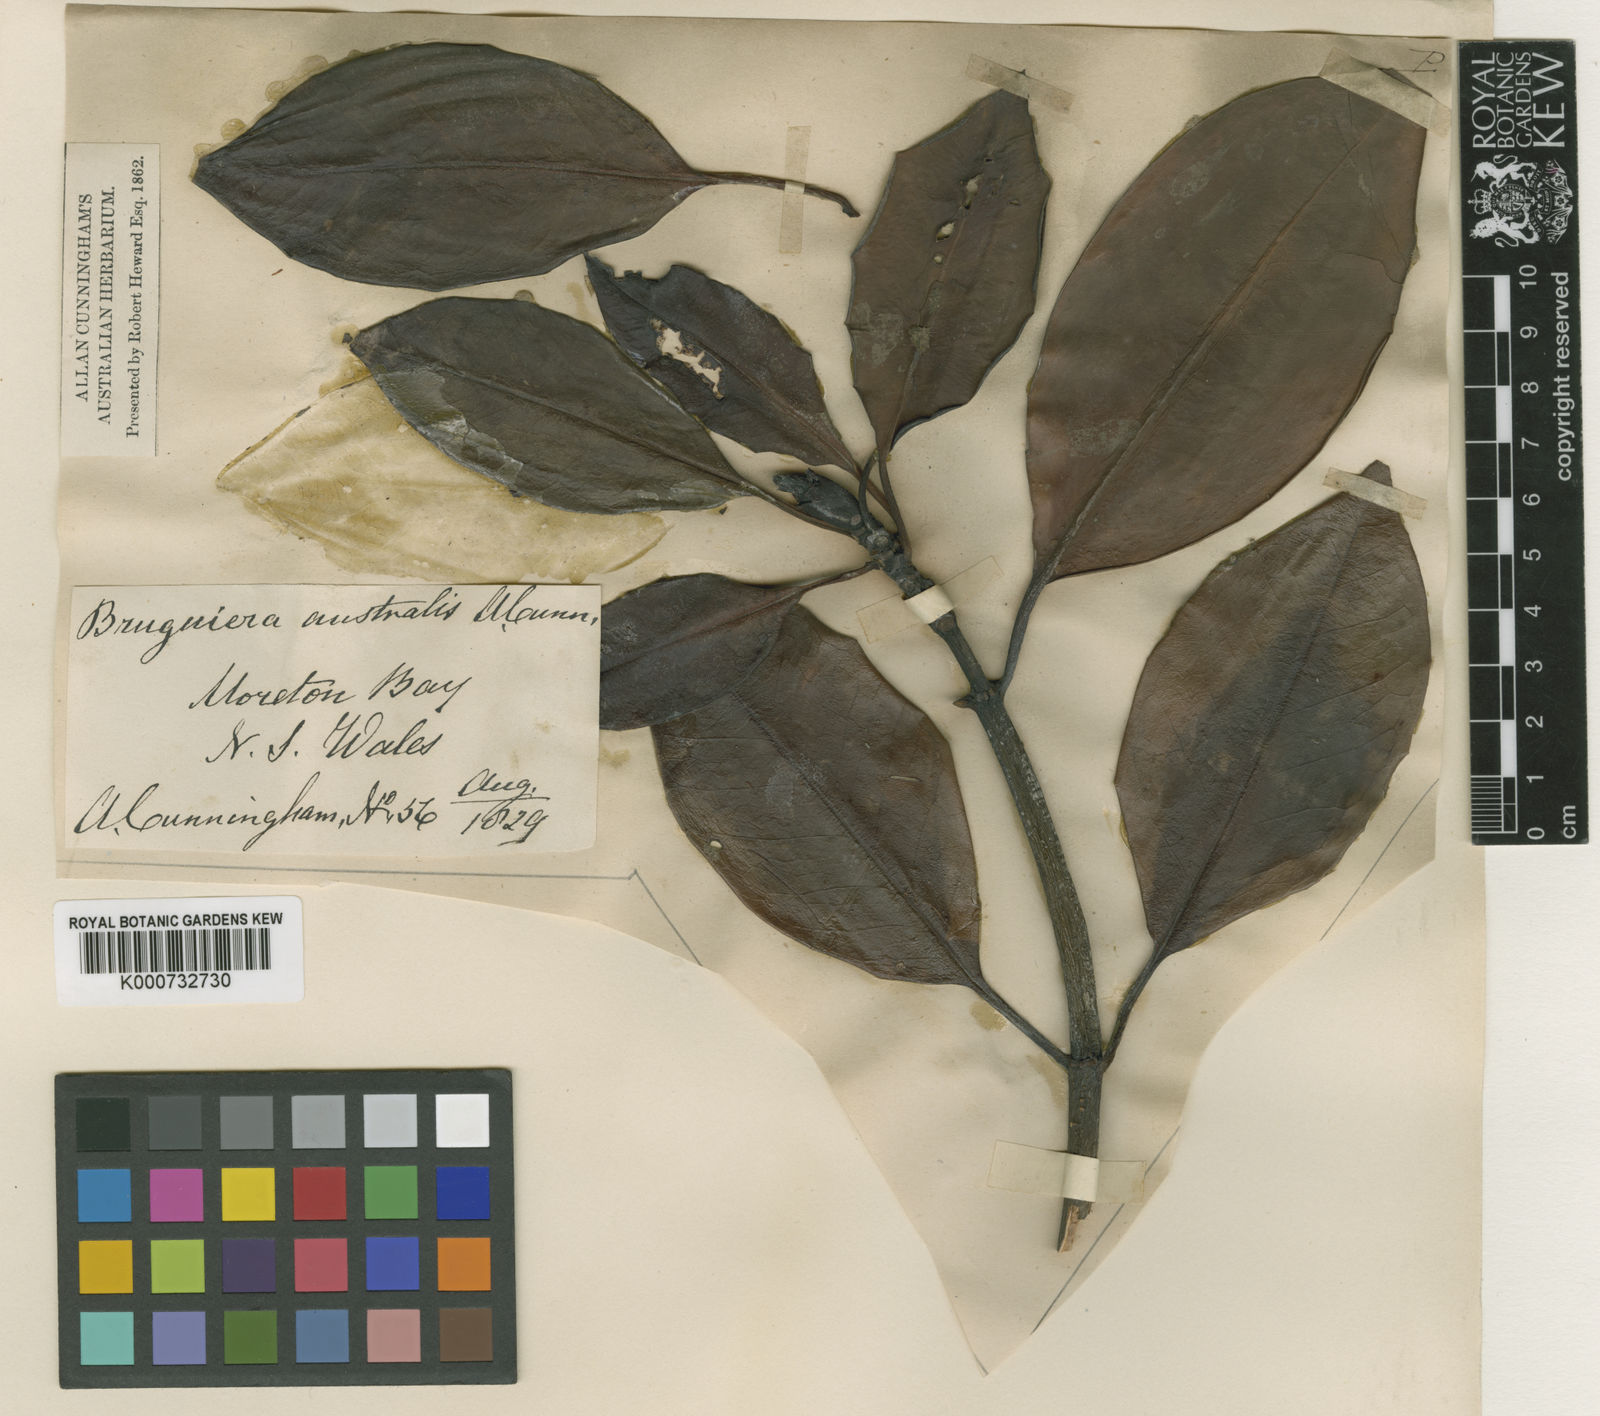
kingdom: Plantae
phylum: Tracheophyta
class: Magnoliopsida
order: Malpighiales
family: Rhizophoraceae
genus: Bruguiera
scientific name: Bruguiera
